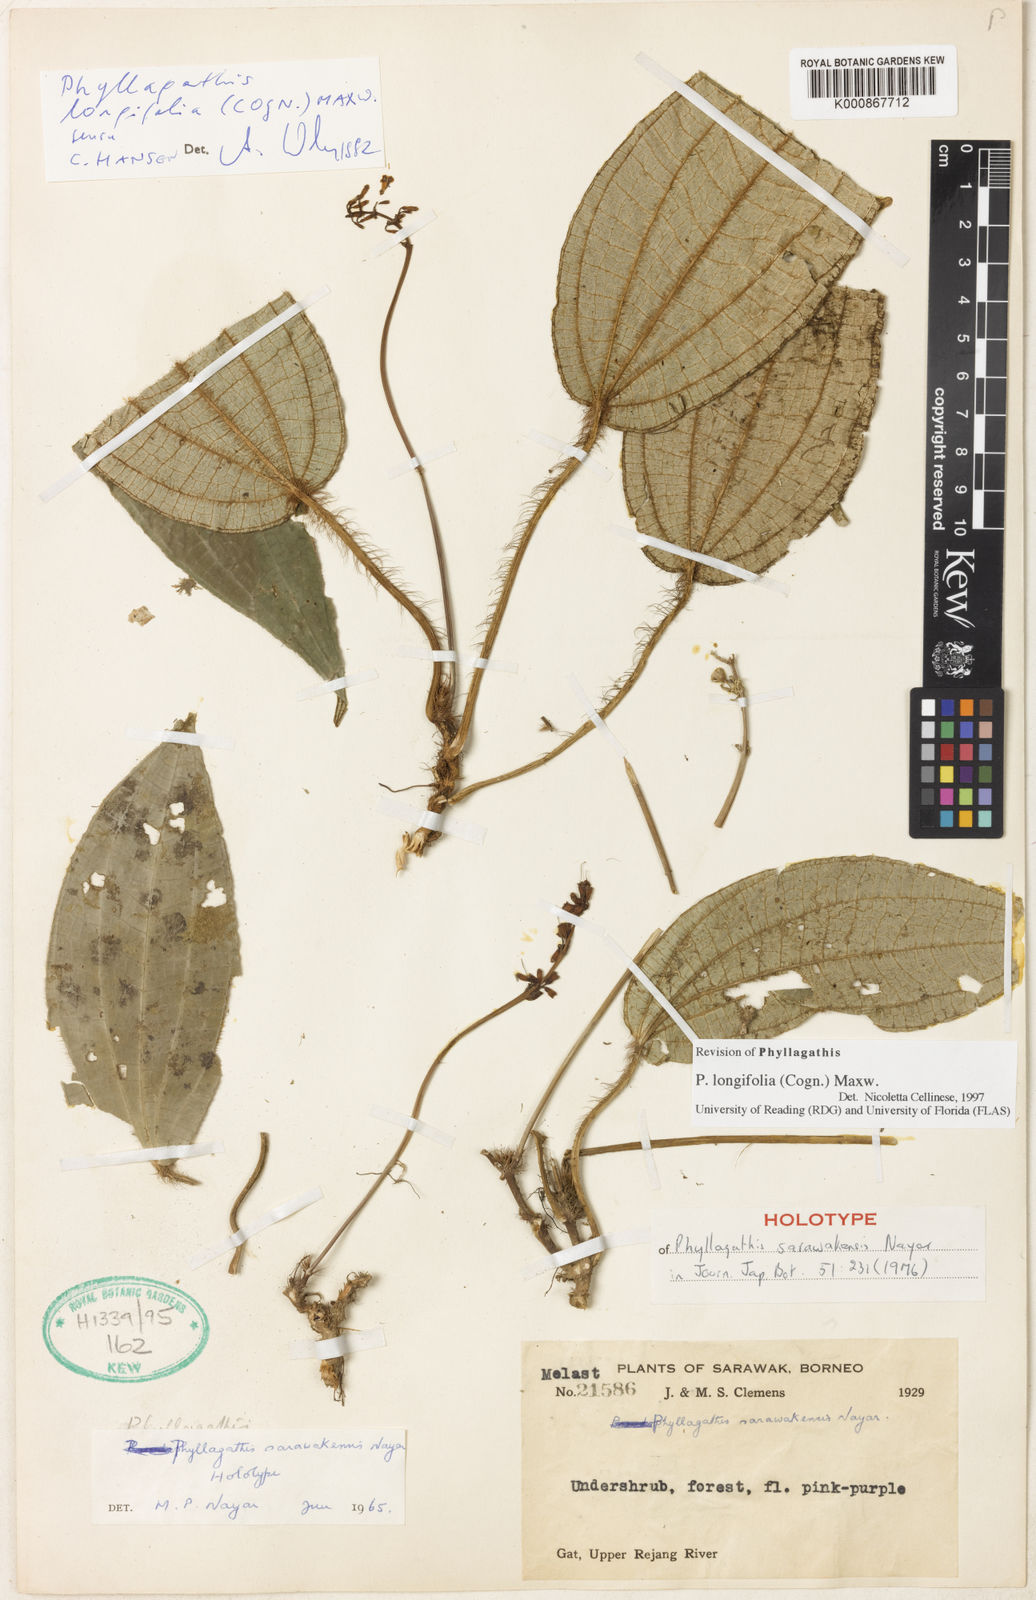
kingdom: Plantae
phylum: Tracheophyta
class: Magnoliopsida
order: Myrtales
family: Melastomataceae
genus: Phyllagathis
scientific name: Phyllagathis longifolius
